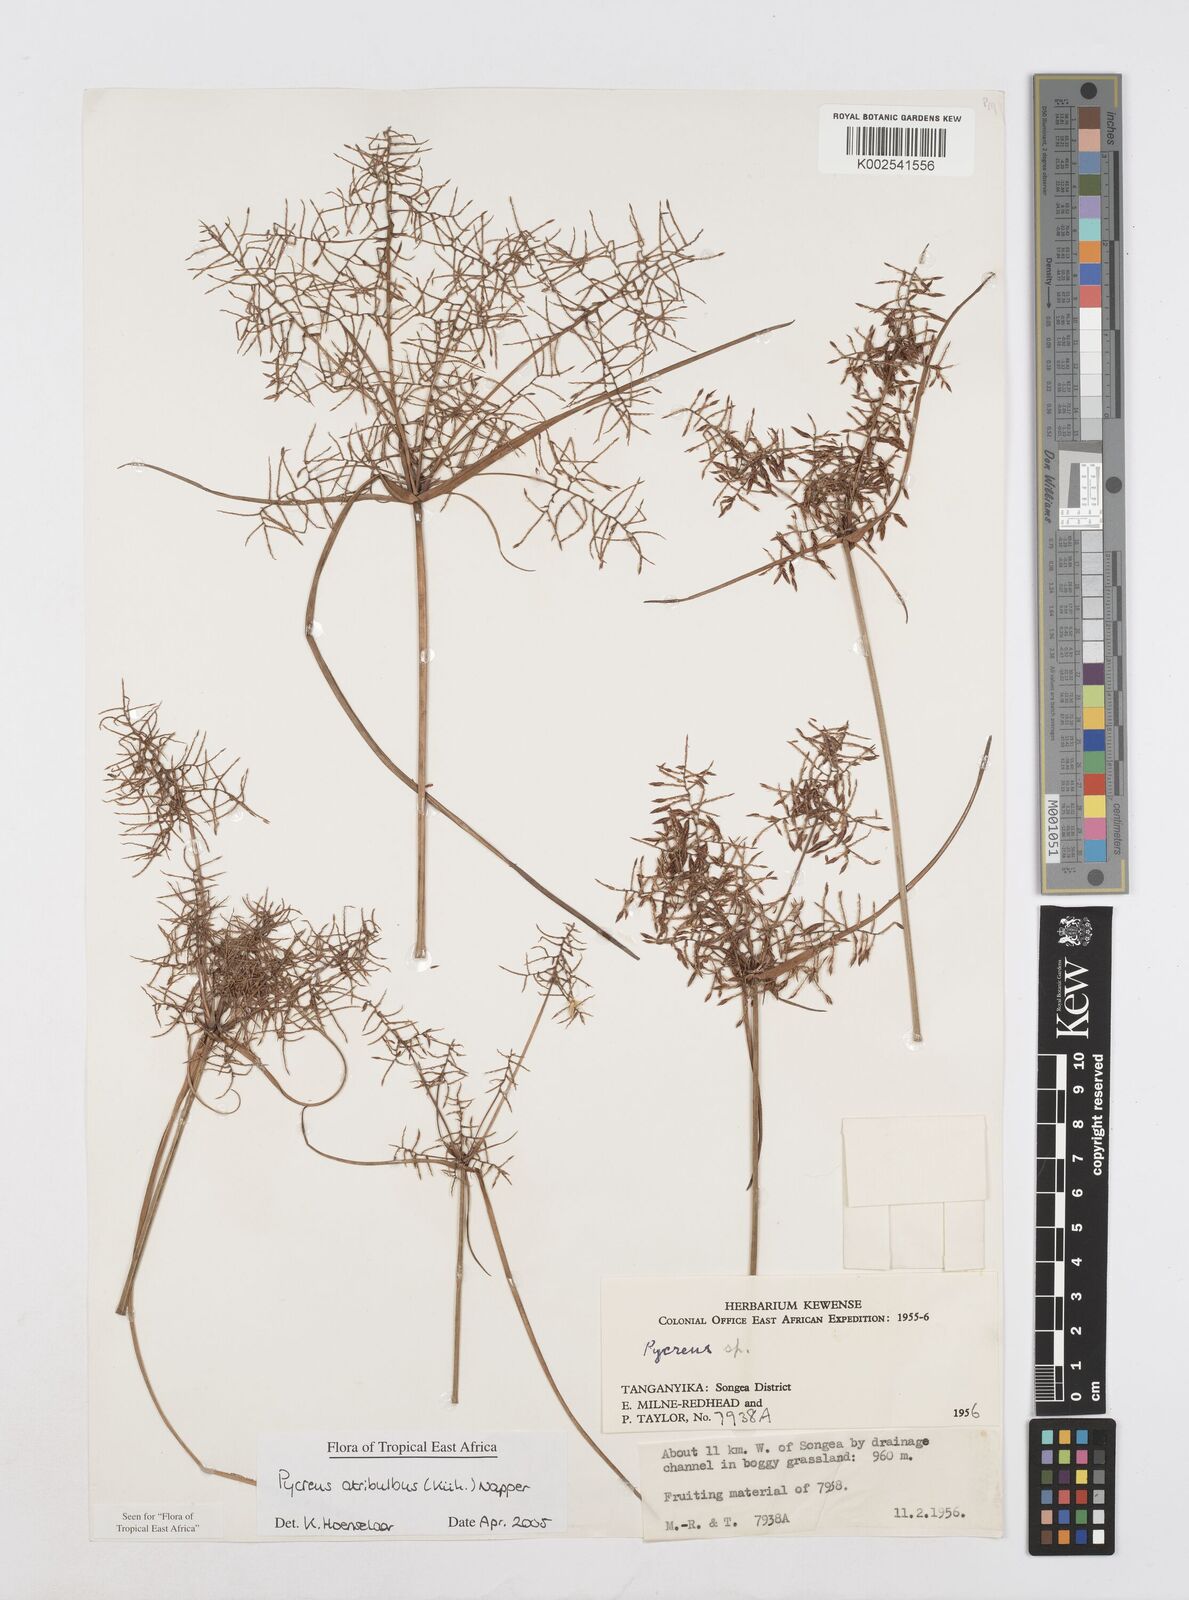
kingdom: Plantae
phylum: Tracheophyta
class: Liliopsida
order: Poales
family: Cyperaceae
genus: Cyperus
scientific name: Cyperus intactus
